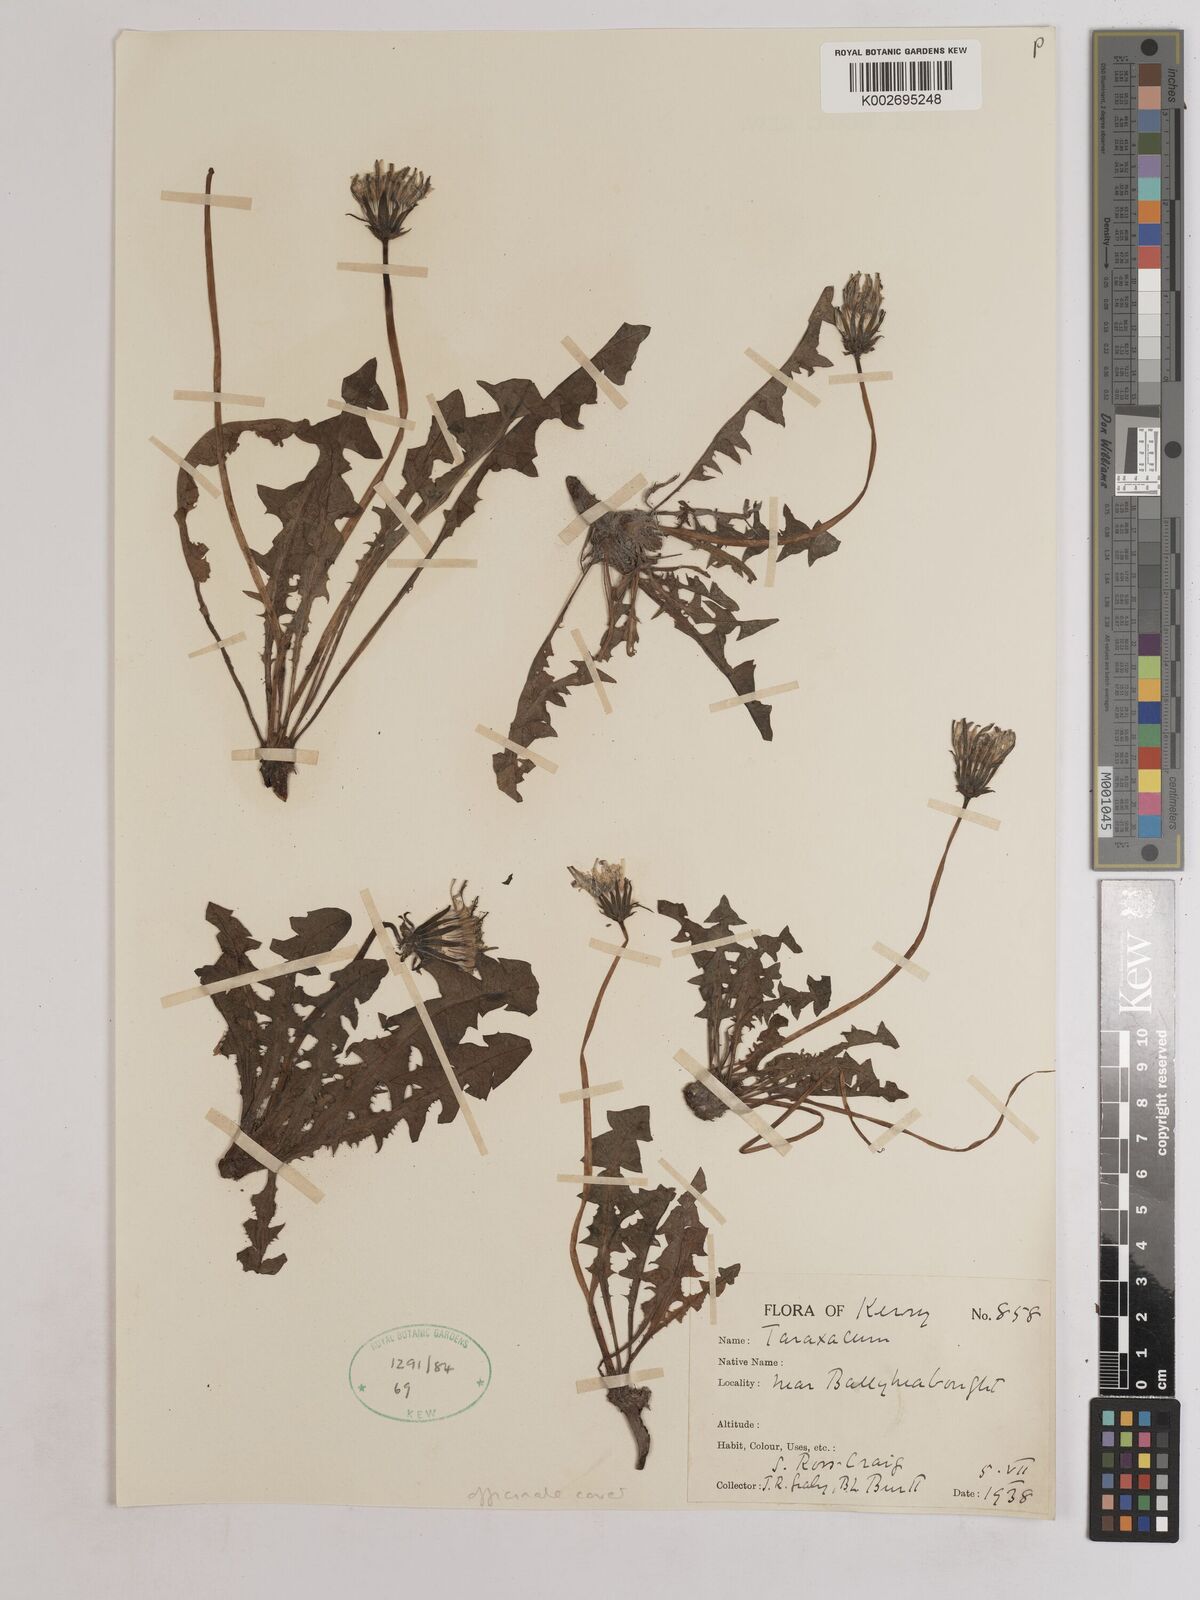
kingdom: Plantae
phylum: Tracheophyta
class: Magnoliopsida
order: Asterales
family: Asteraceae
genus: Taraxacum
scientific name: Taraxacum officinale
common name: Common dandelion
